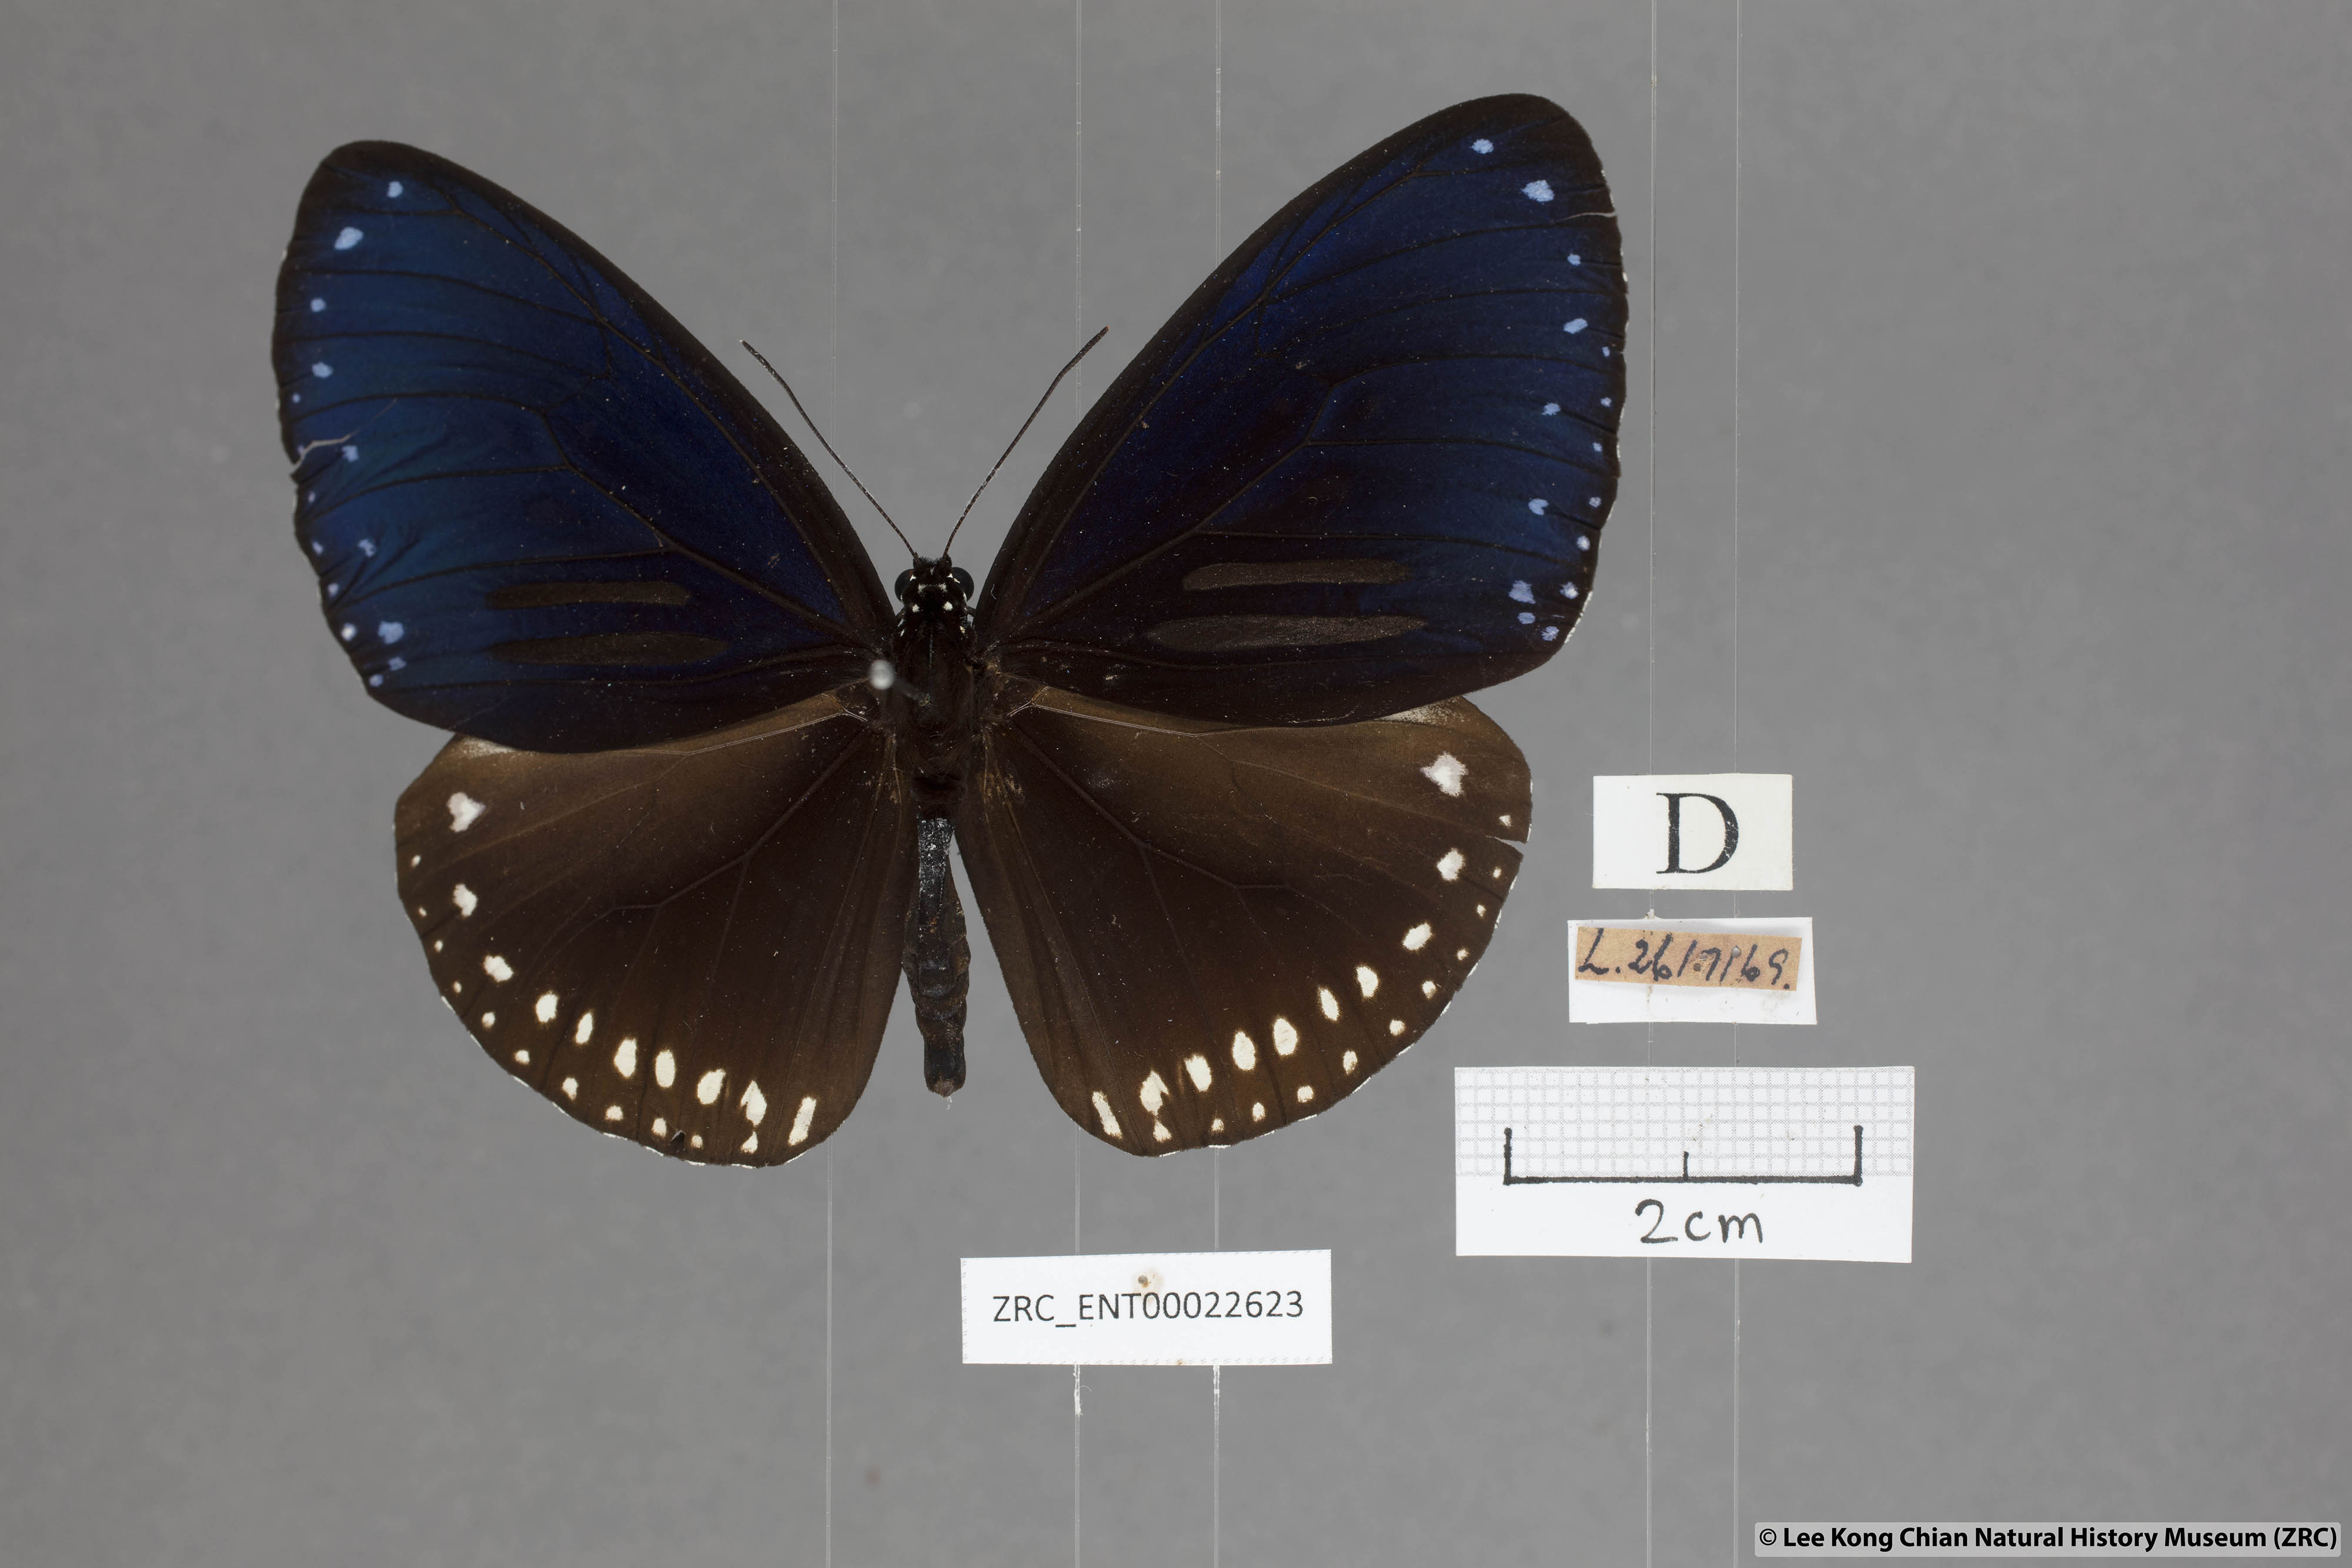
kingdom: Animalia
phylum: Arthropoda
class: Insecta
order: Lepidoptera
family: Nymphalidae
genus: Euploea
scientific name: Euploea sylvester
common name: Double-branded crow butterfly
